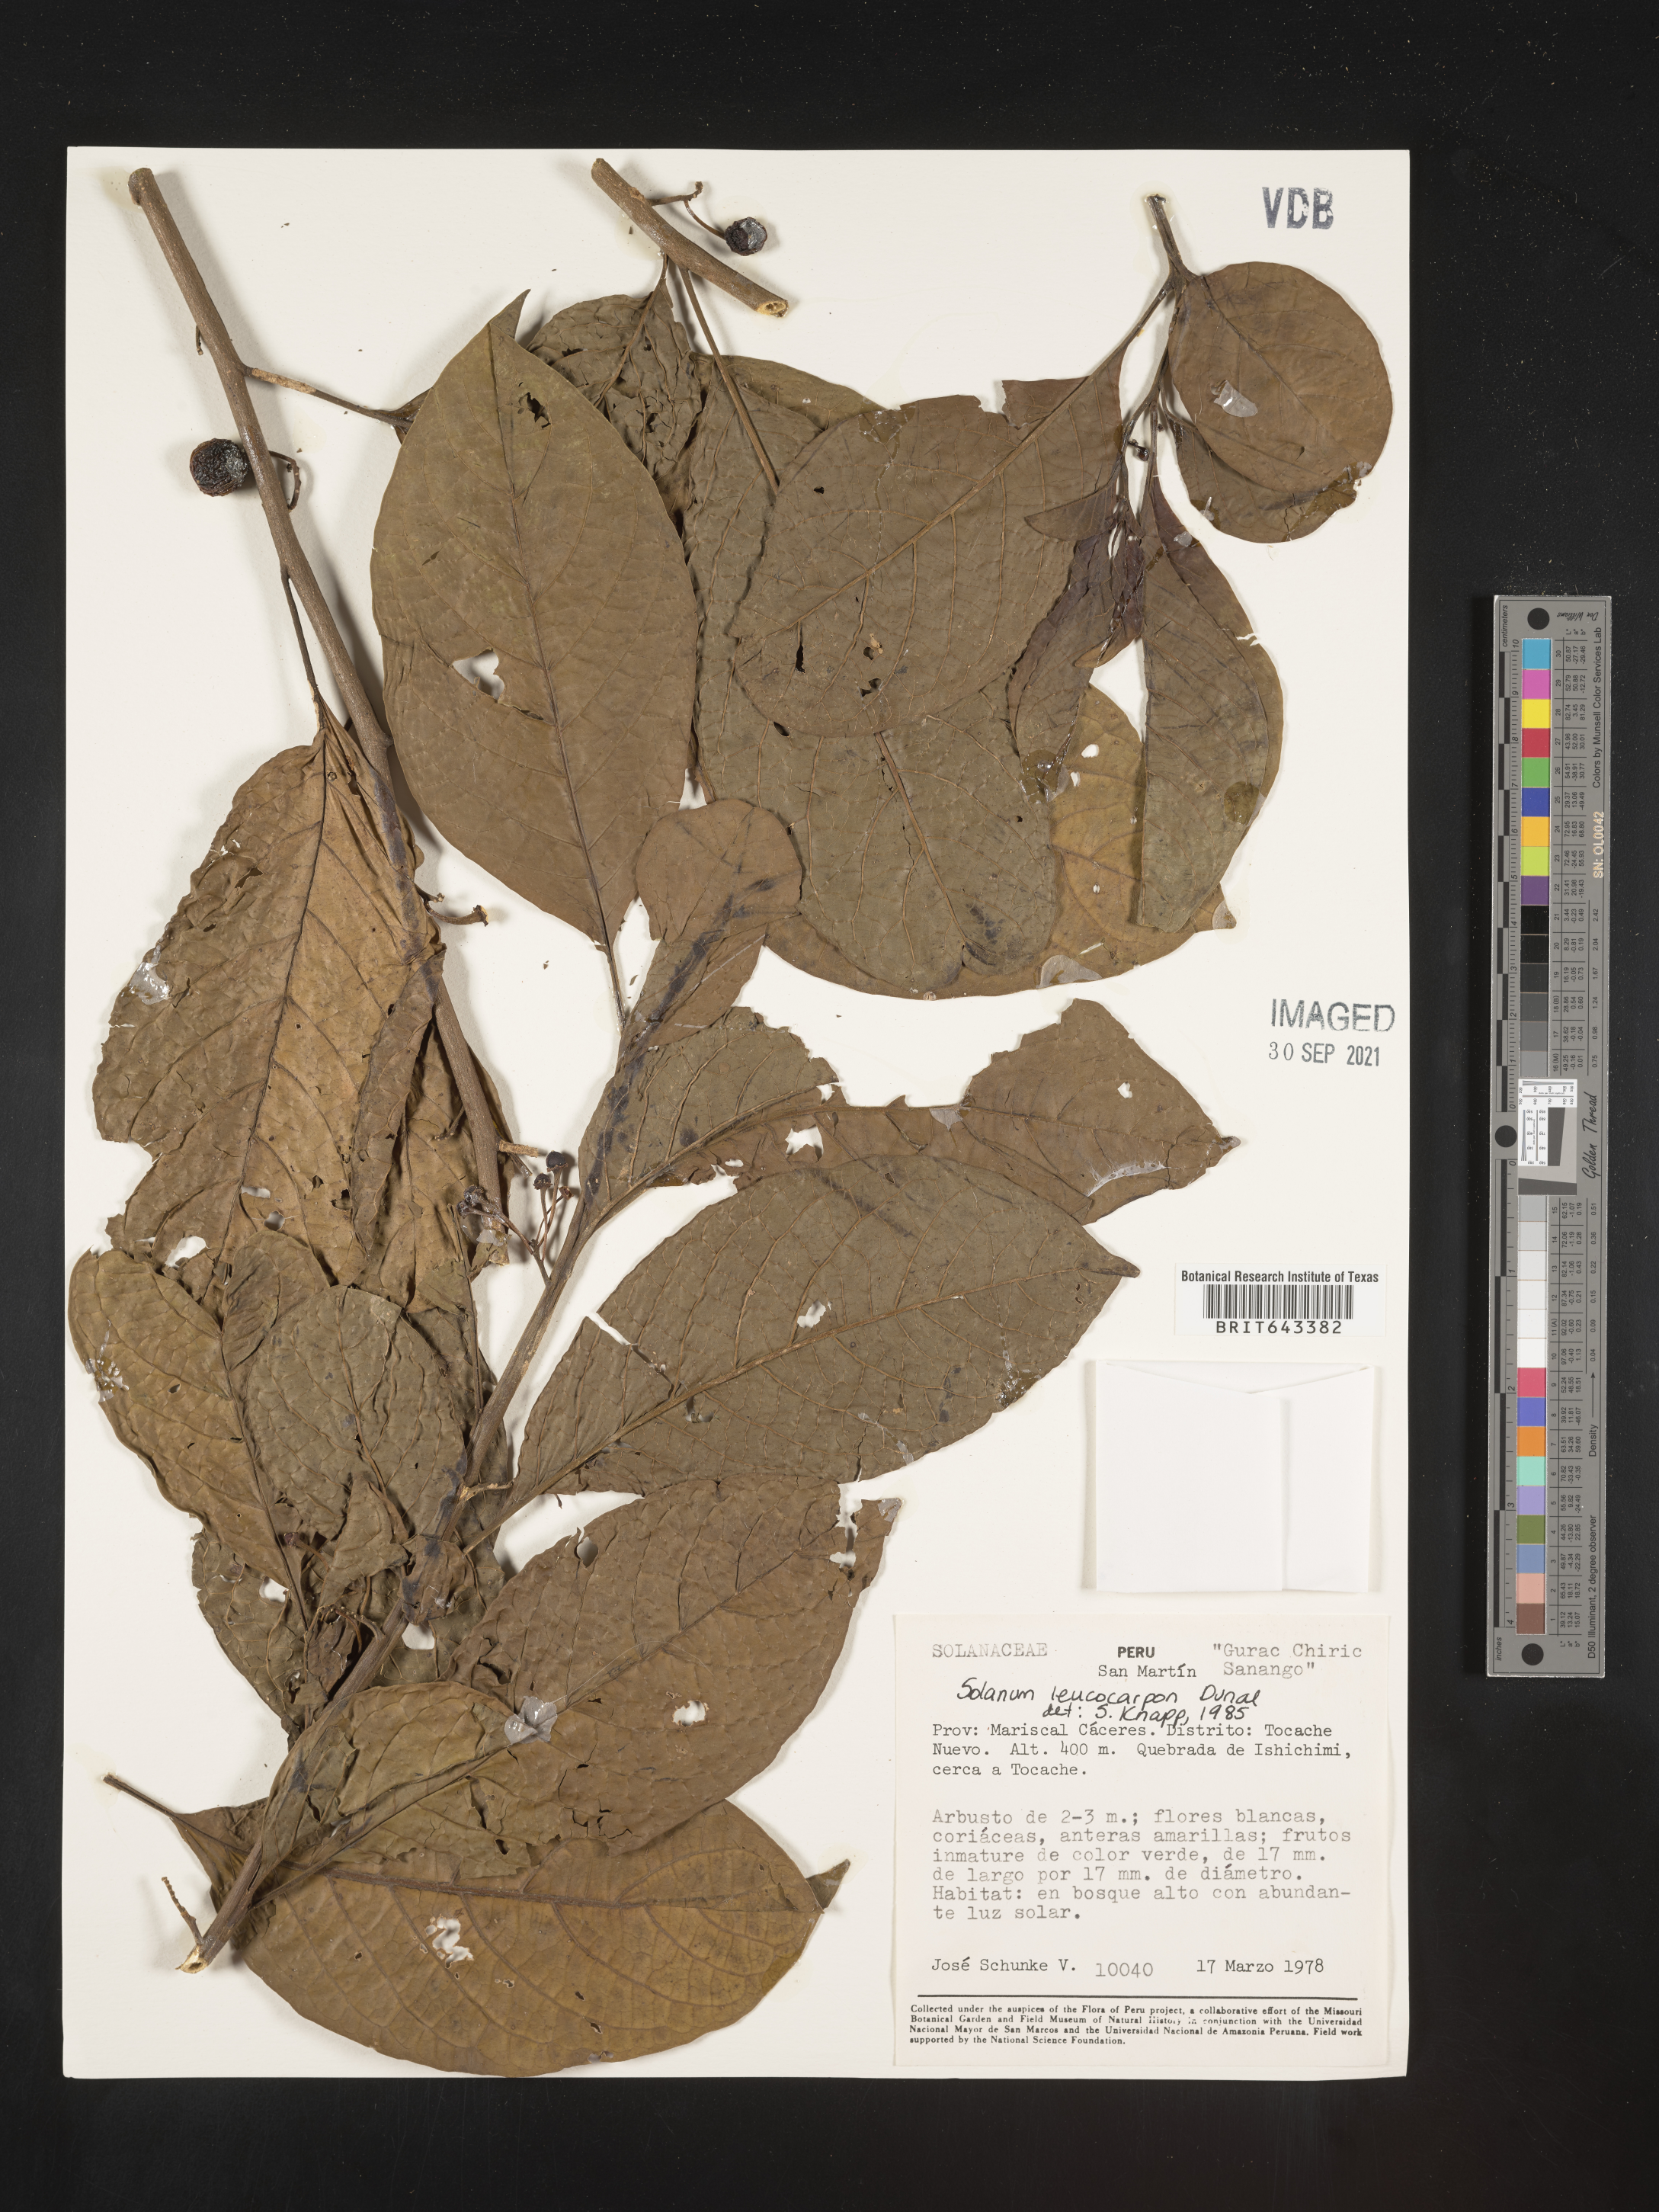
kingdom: Plantae
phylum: Tracheophyta
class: Magnoliopsida
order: Solanales
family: Solanaceae
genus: Solanum
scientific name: Solanum
